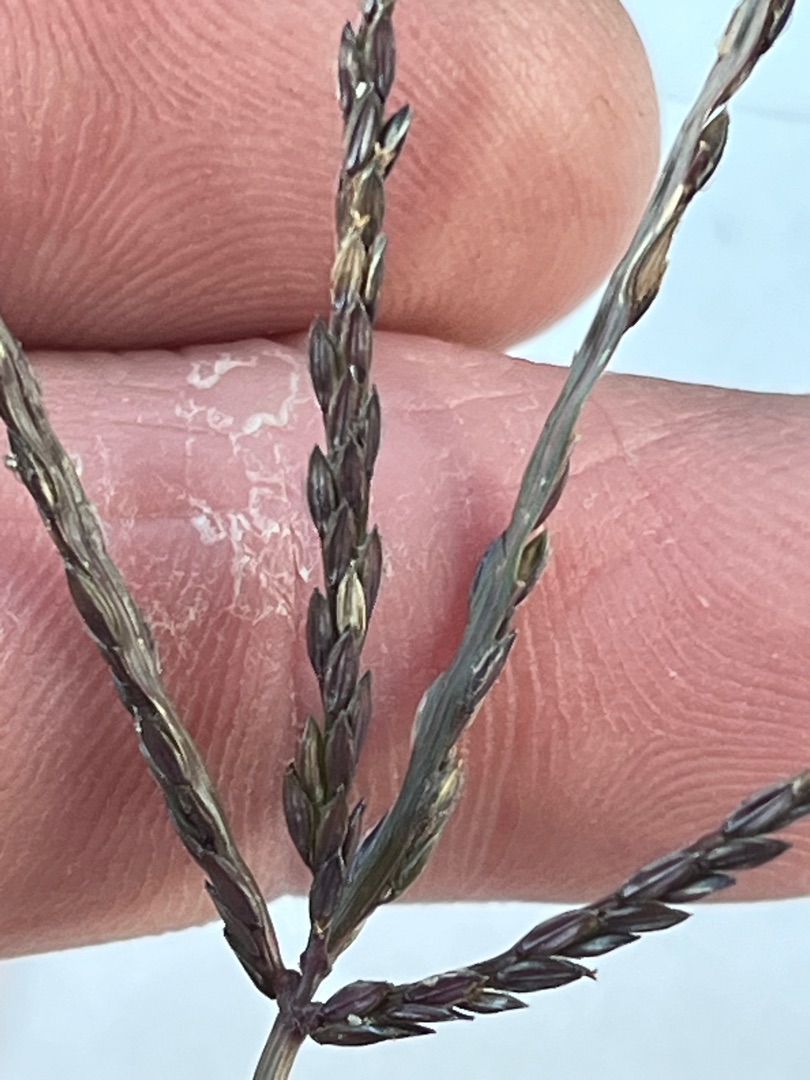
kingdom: Plantae
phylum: Tracheophyta
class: Liliopsida
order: Poales
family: Poaceae
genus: Digitaria
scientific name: Digitaria sanguinalis
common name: Blodhirse
